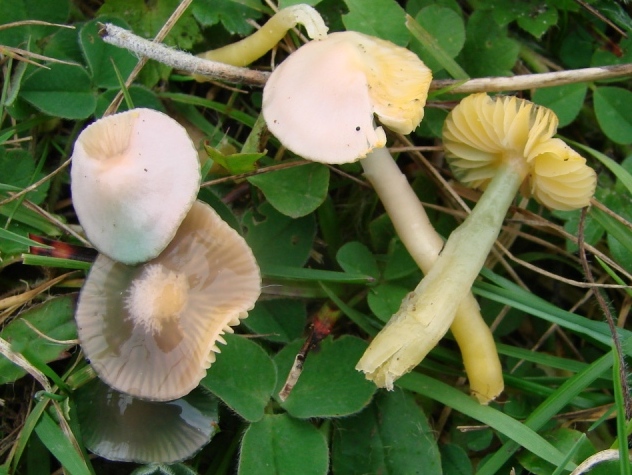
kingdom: Fungi
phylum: Basidiomycota
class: Agaricomycetes
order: Agaricales
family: Hygrophoraceae
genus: Gliophorus
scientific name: Gliophorus psittacinus
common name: papegøje-vokshat
